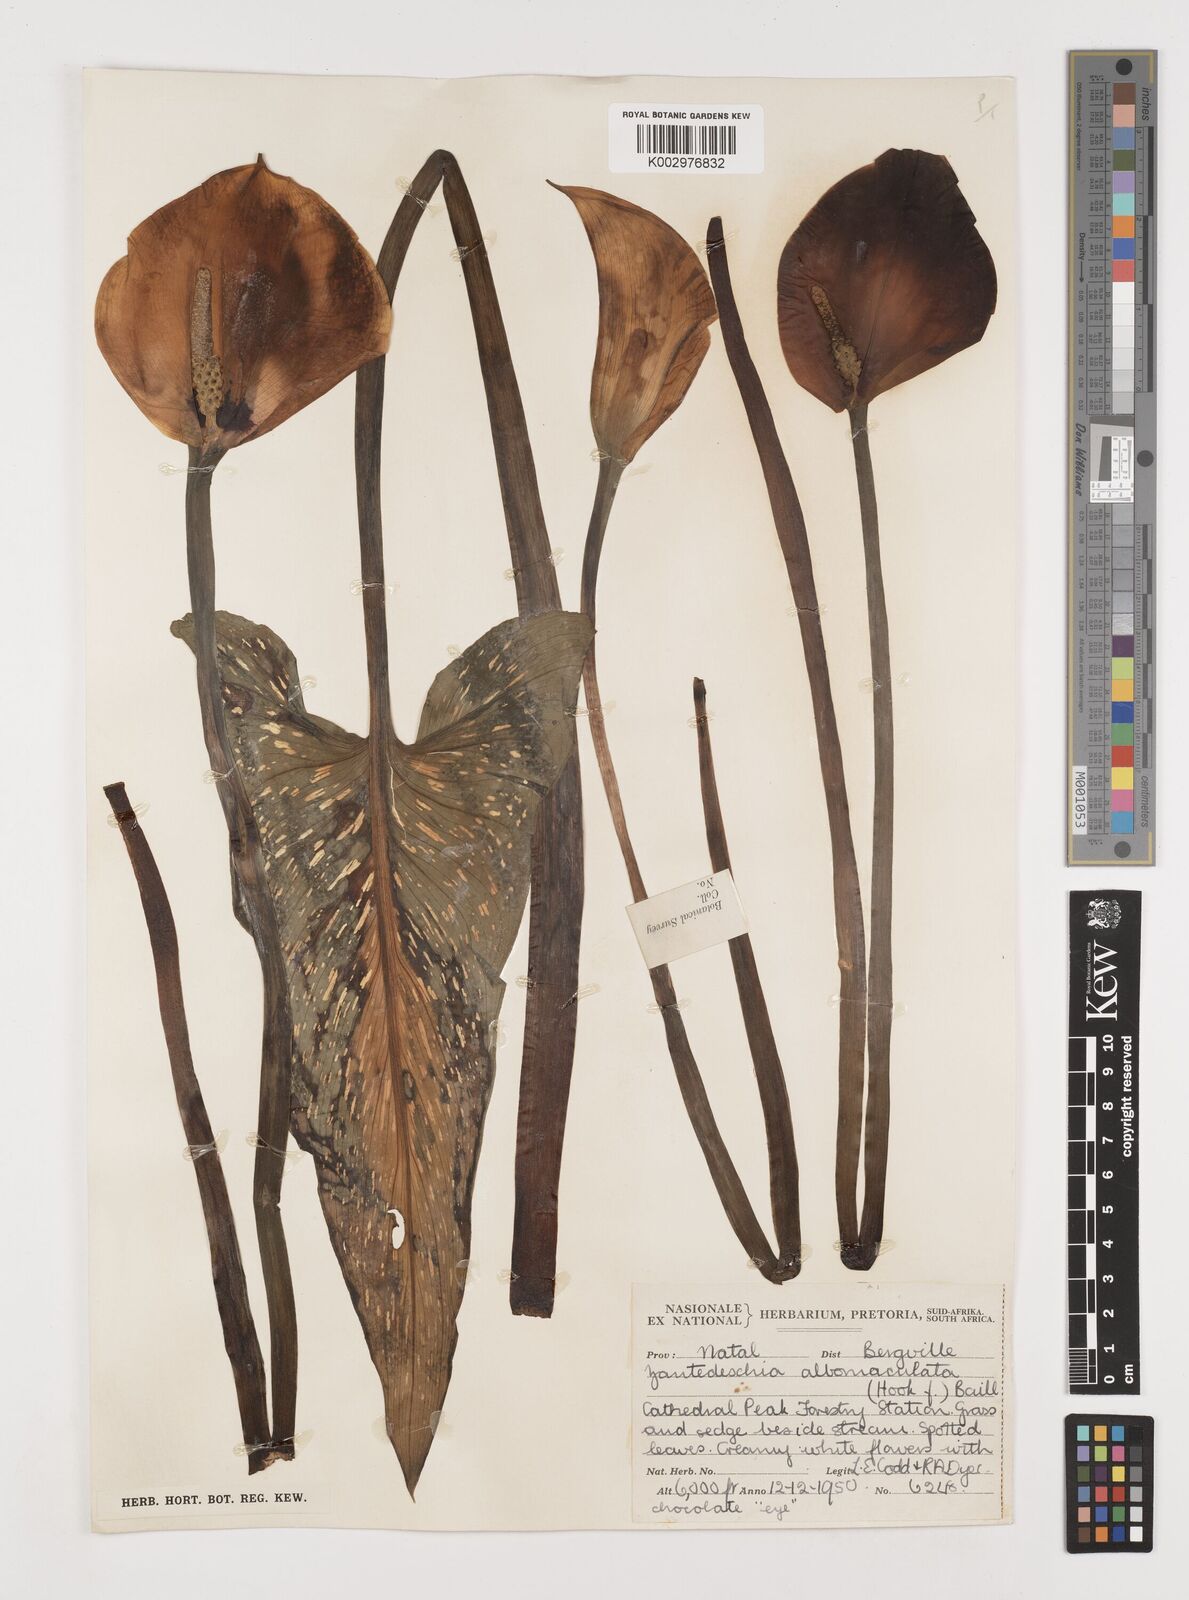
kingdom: Plantae
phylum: Tracheophyta
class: Liliopsida
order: Alismatales
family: Araceae
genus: Zantedeschia
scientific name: Zantedeschia albomaculata
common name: Spotted calla lily
